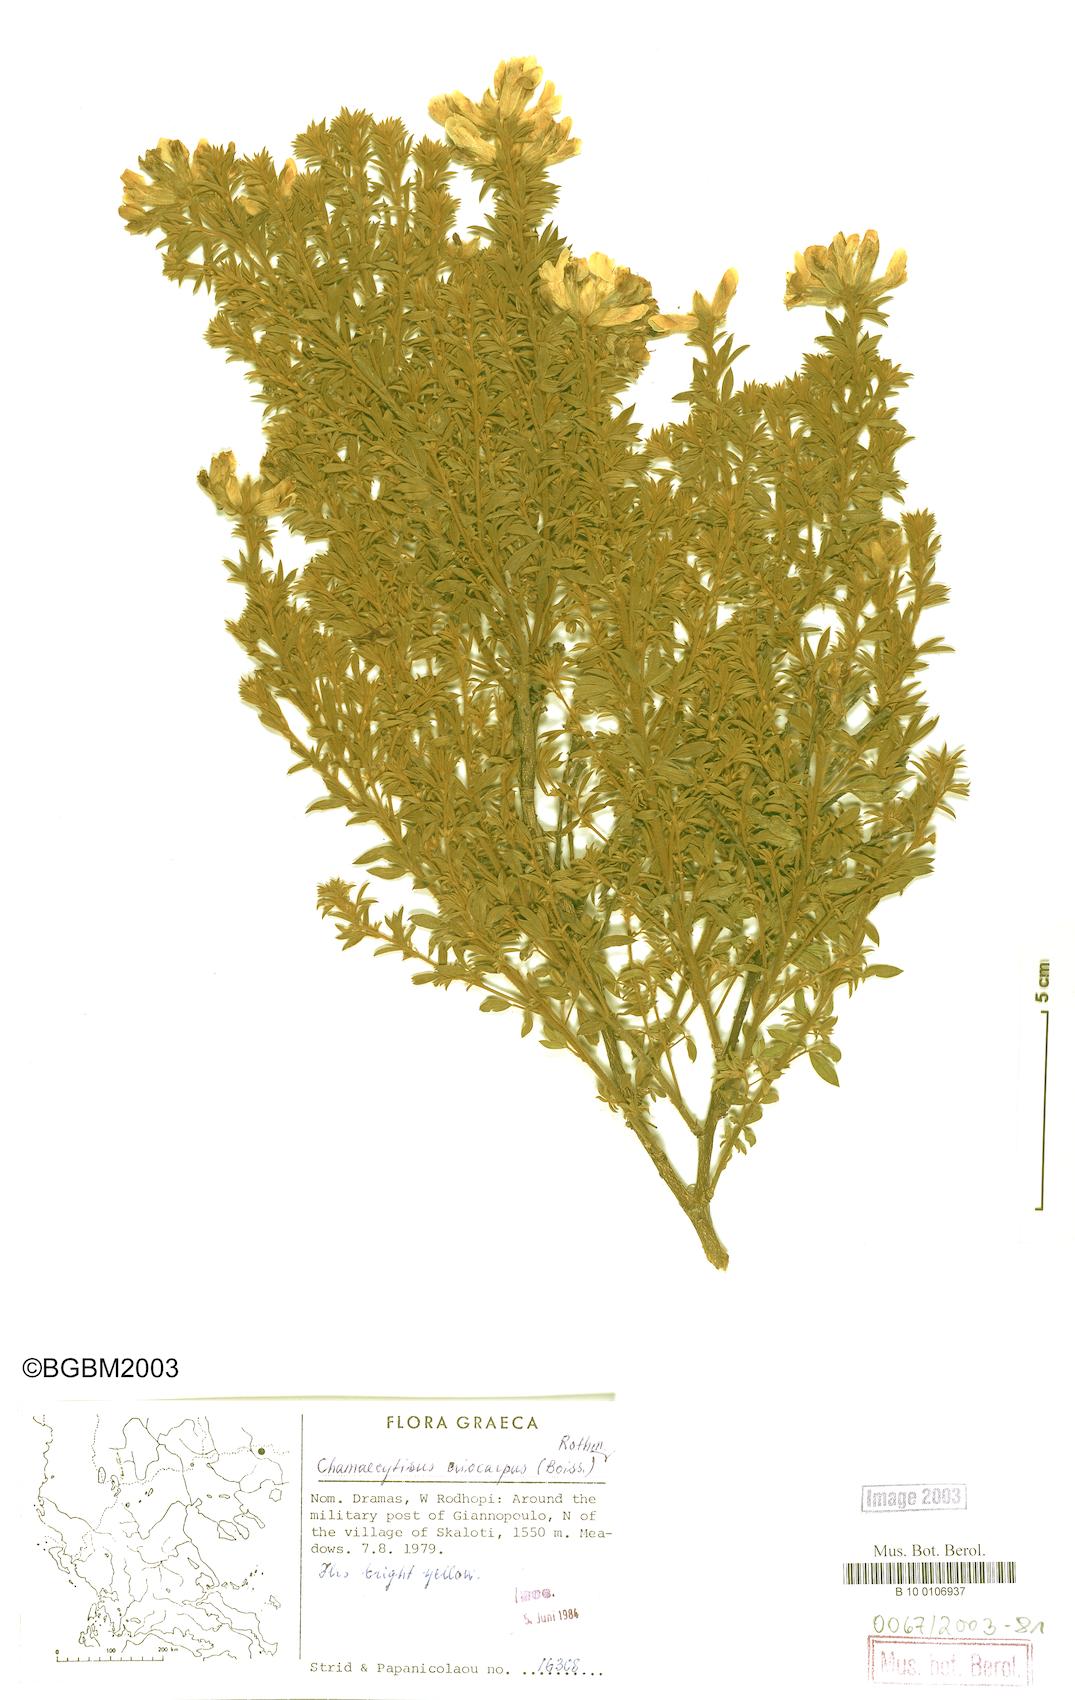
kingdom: Plantae
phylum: Tracheophyta
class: Magnoliopsida
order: Fabales
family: Fabaceae
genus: Chamaecytisus
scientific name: Chamaecytisus eriocarpus
